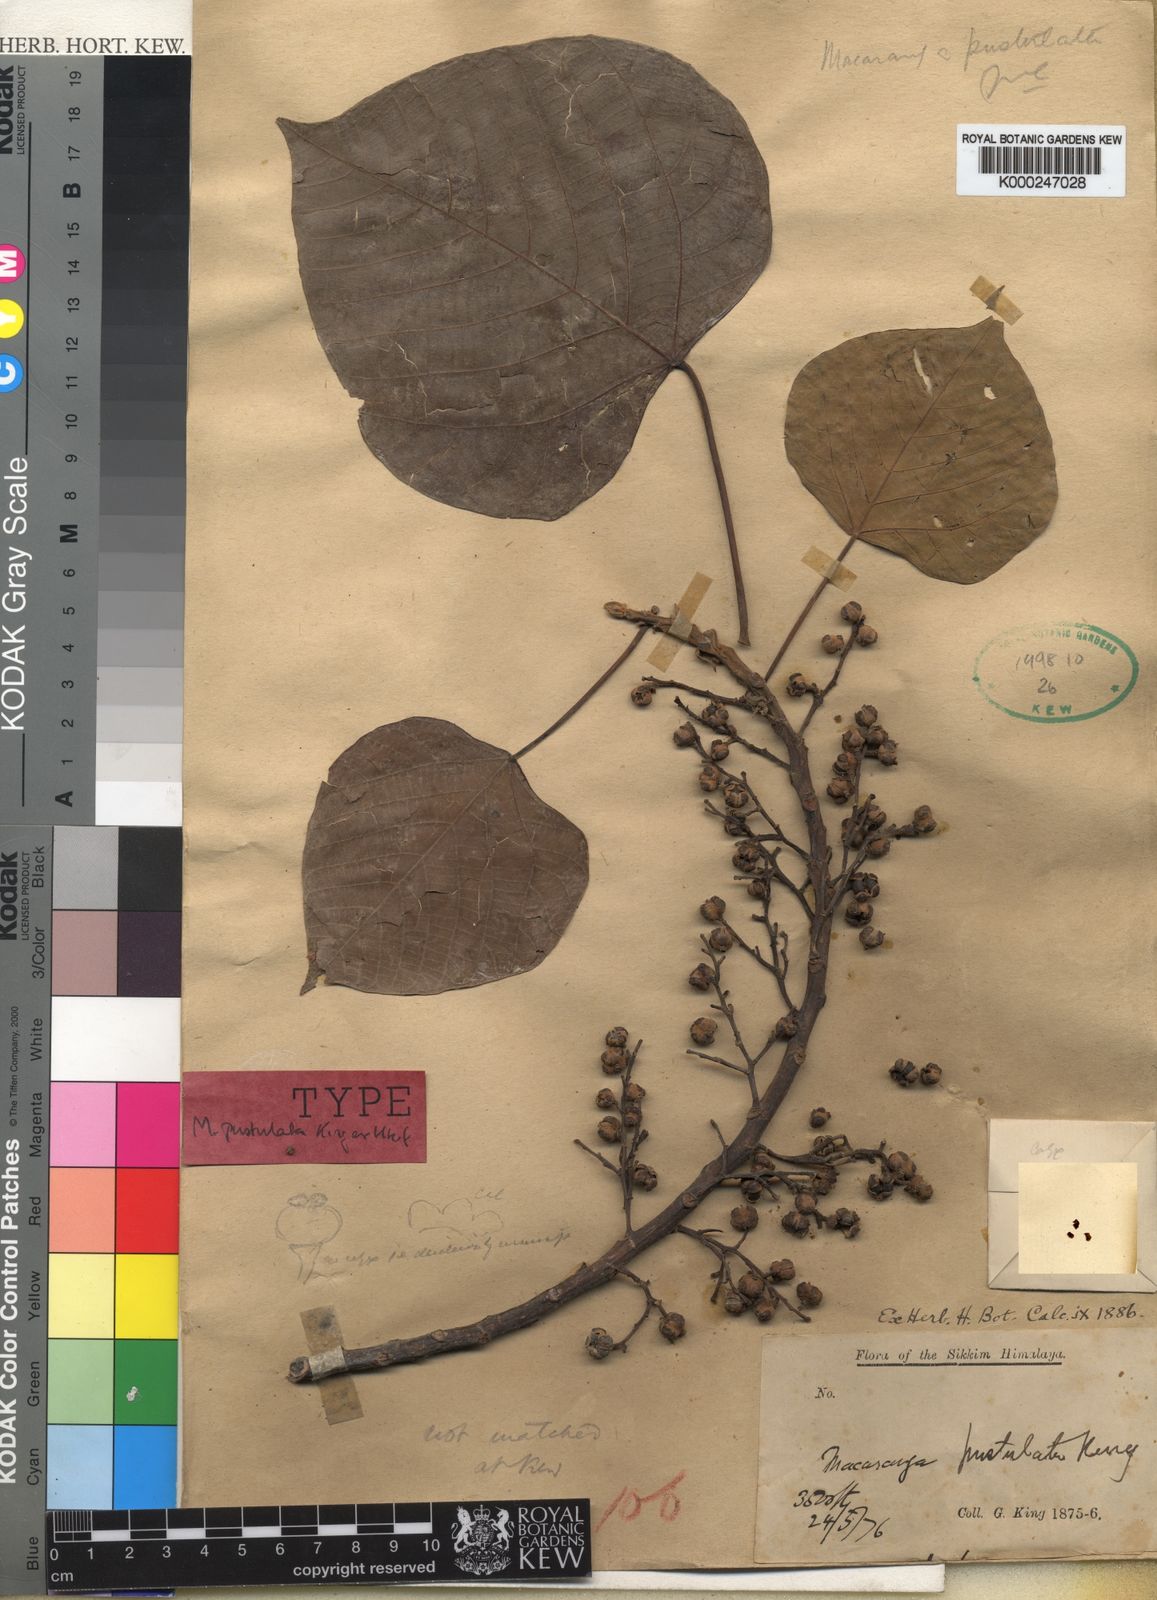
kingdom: Plantae
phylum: Tracheophyta
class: Magnoliopsida
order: Malpighiales
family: Euphorbiaceae
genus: Macaranga
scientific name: Macaranga denticulata
